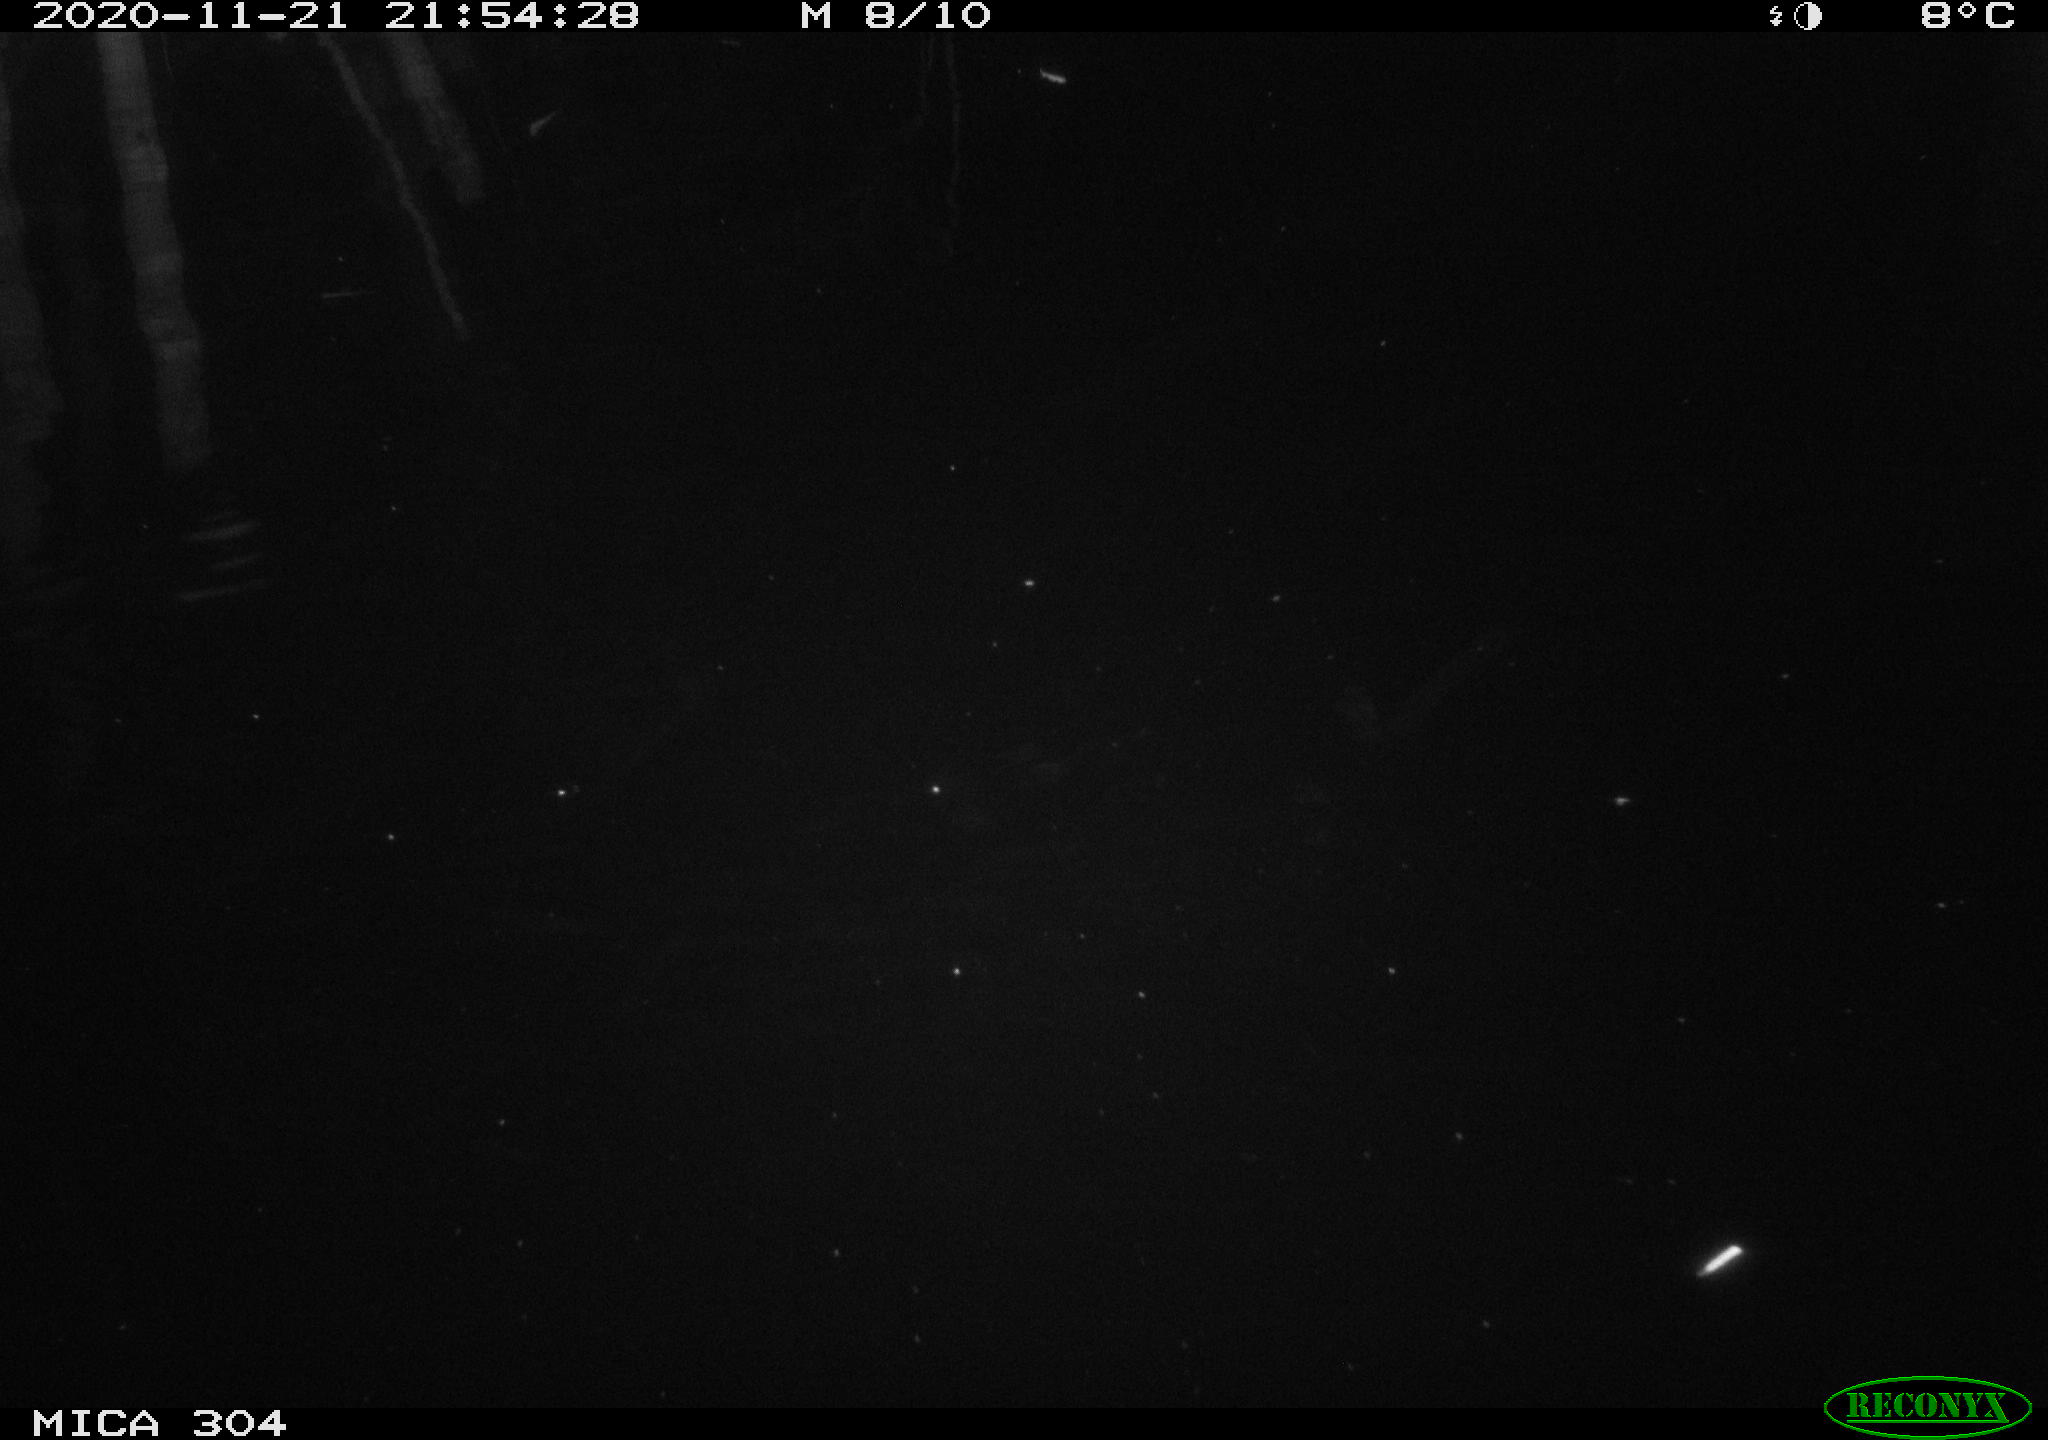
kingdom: Animalia
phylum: Chordata
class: Mammalia
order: Rodentia
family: Muridae
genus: Rattus
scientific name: Rattus norvegicus
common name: Brown rat
